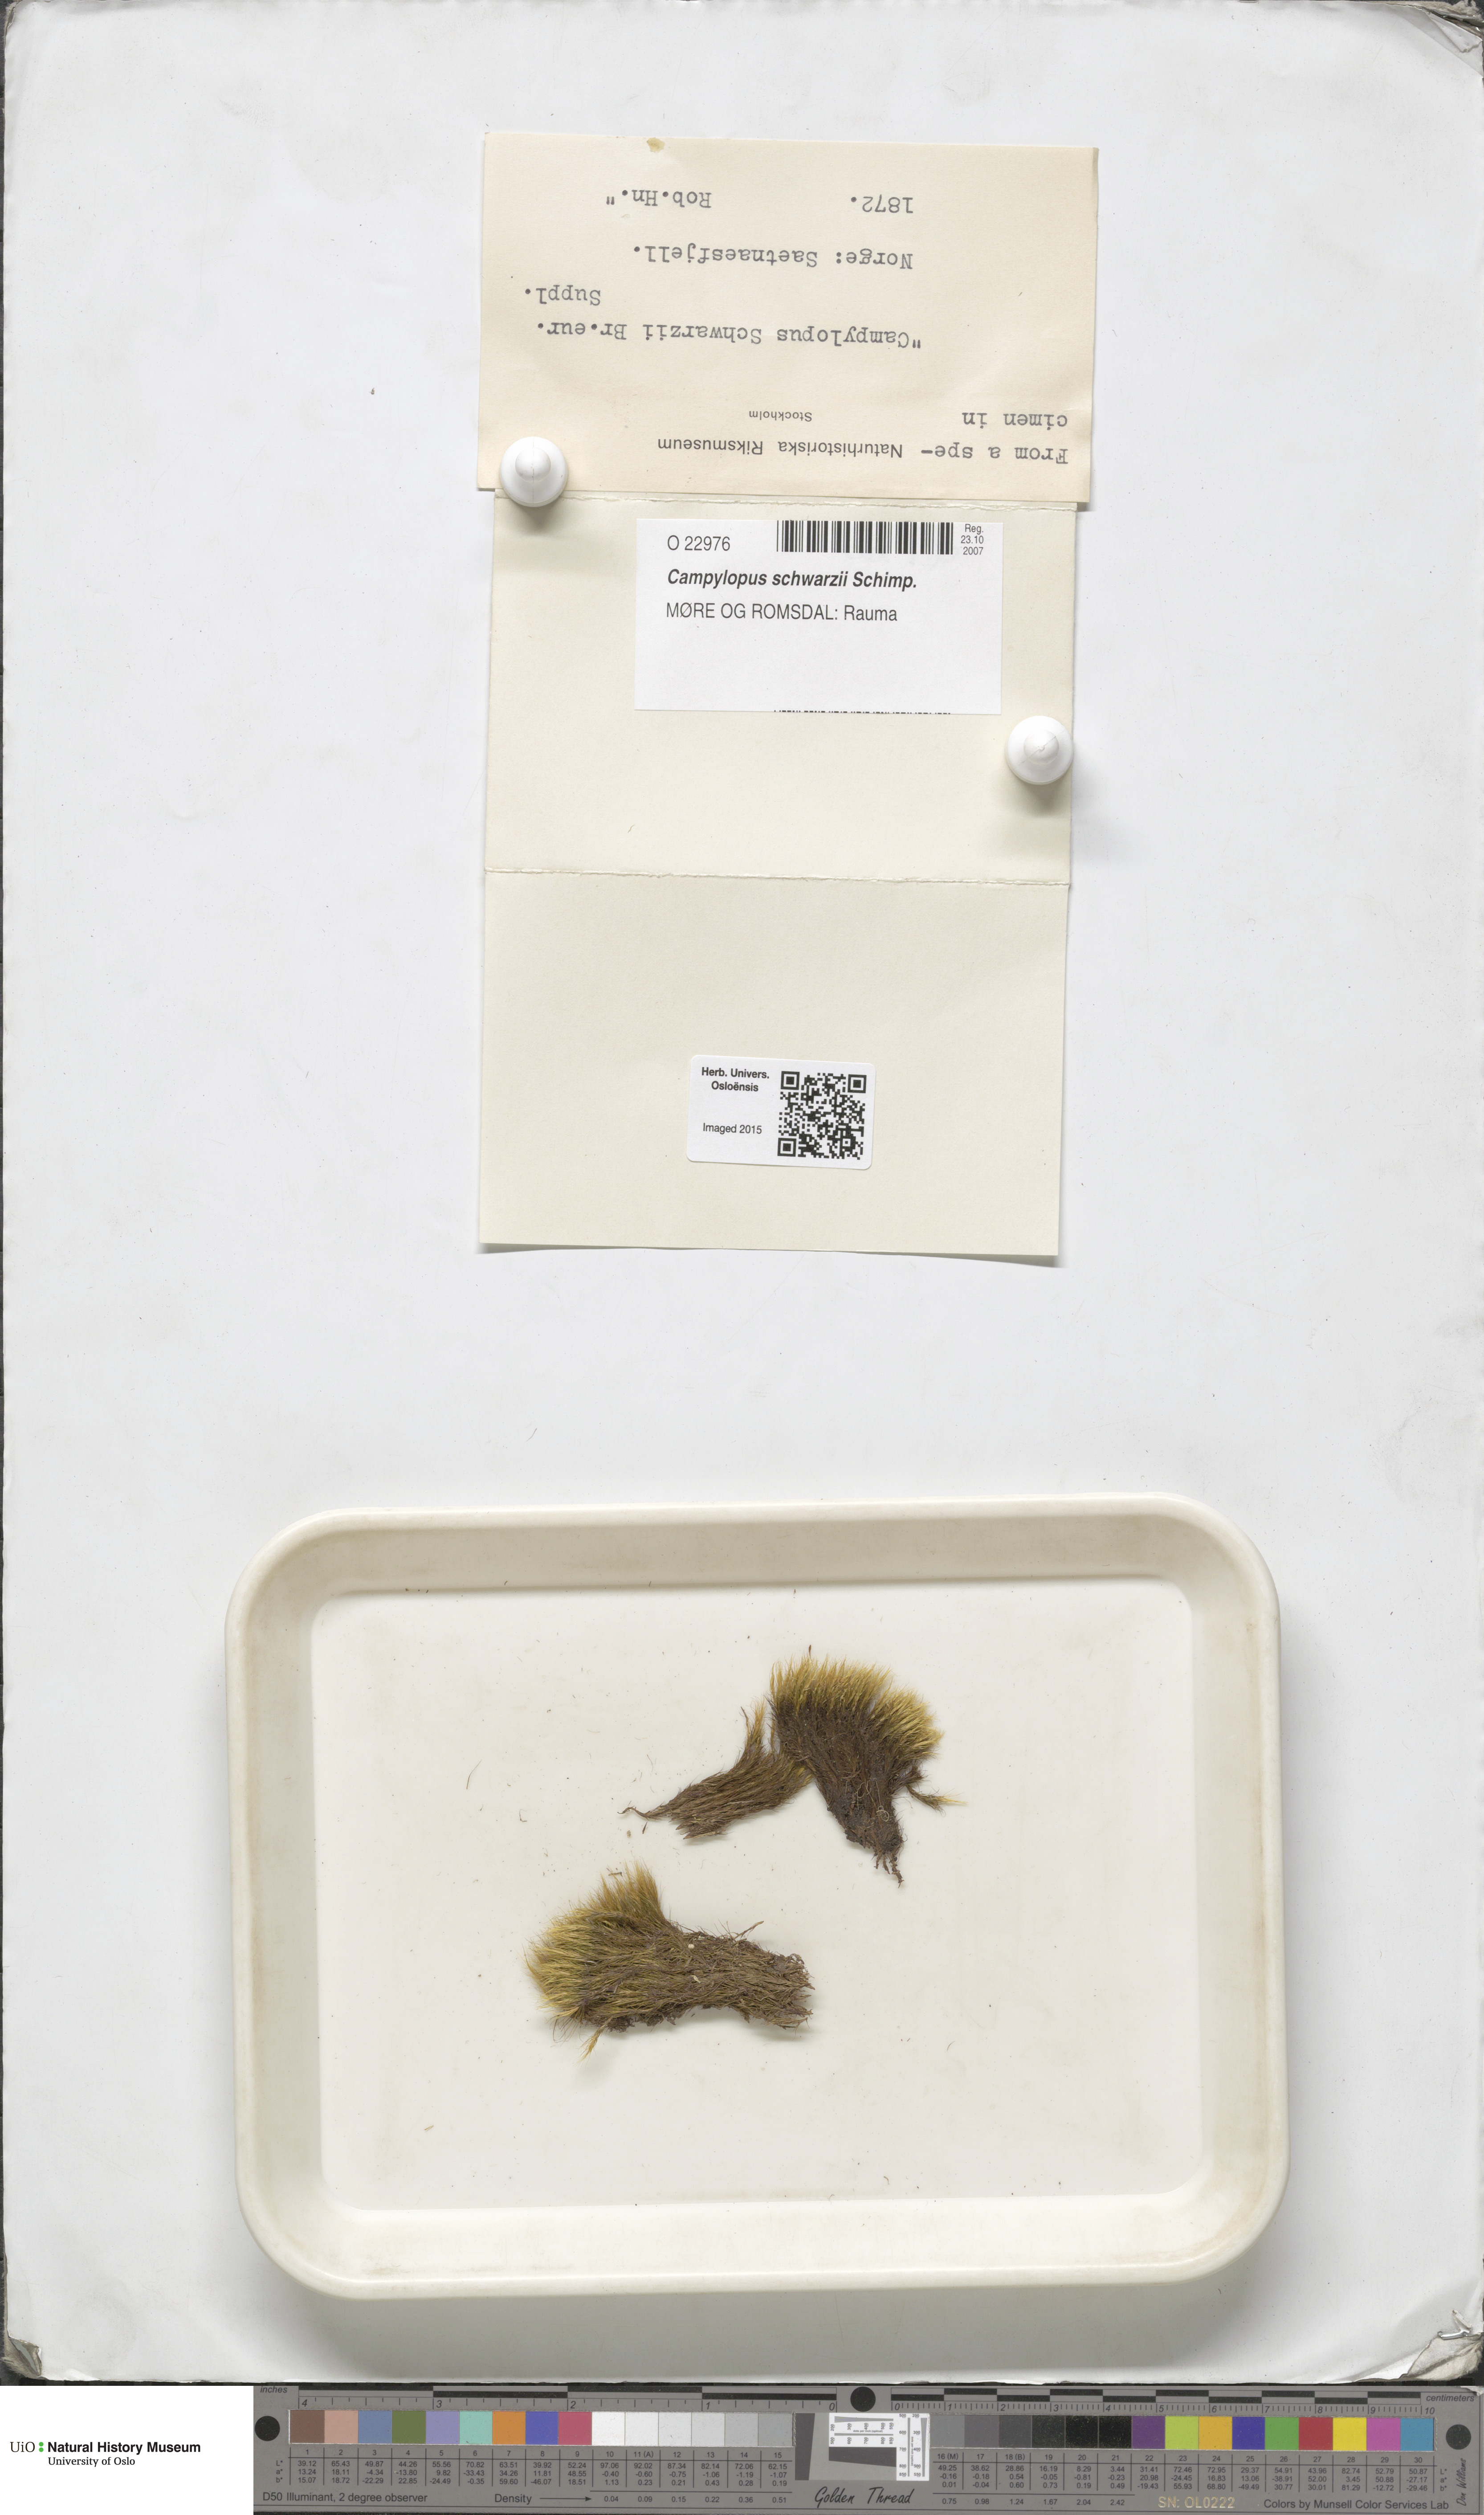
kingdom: Plantae
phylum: Bryophyta
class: Bryopsida
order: Dicranales
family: Leucobryaceae
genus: Campylopus
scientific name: Campylopus gracilis
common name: Schwarz's swan-neck moss
